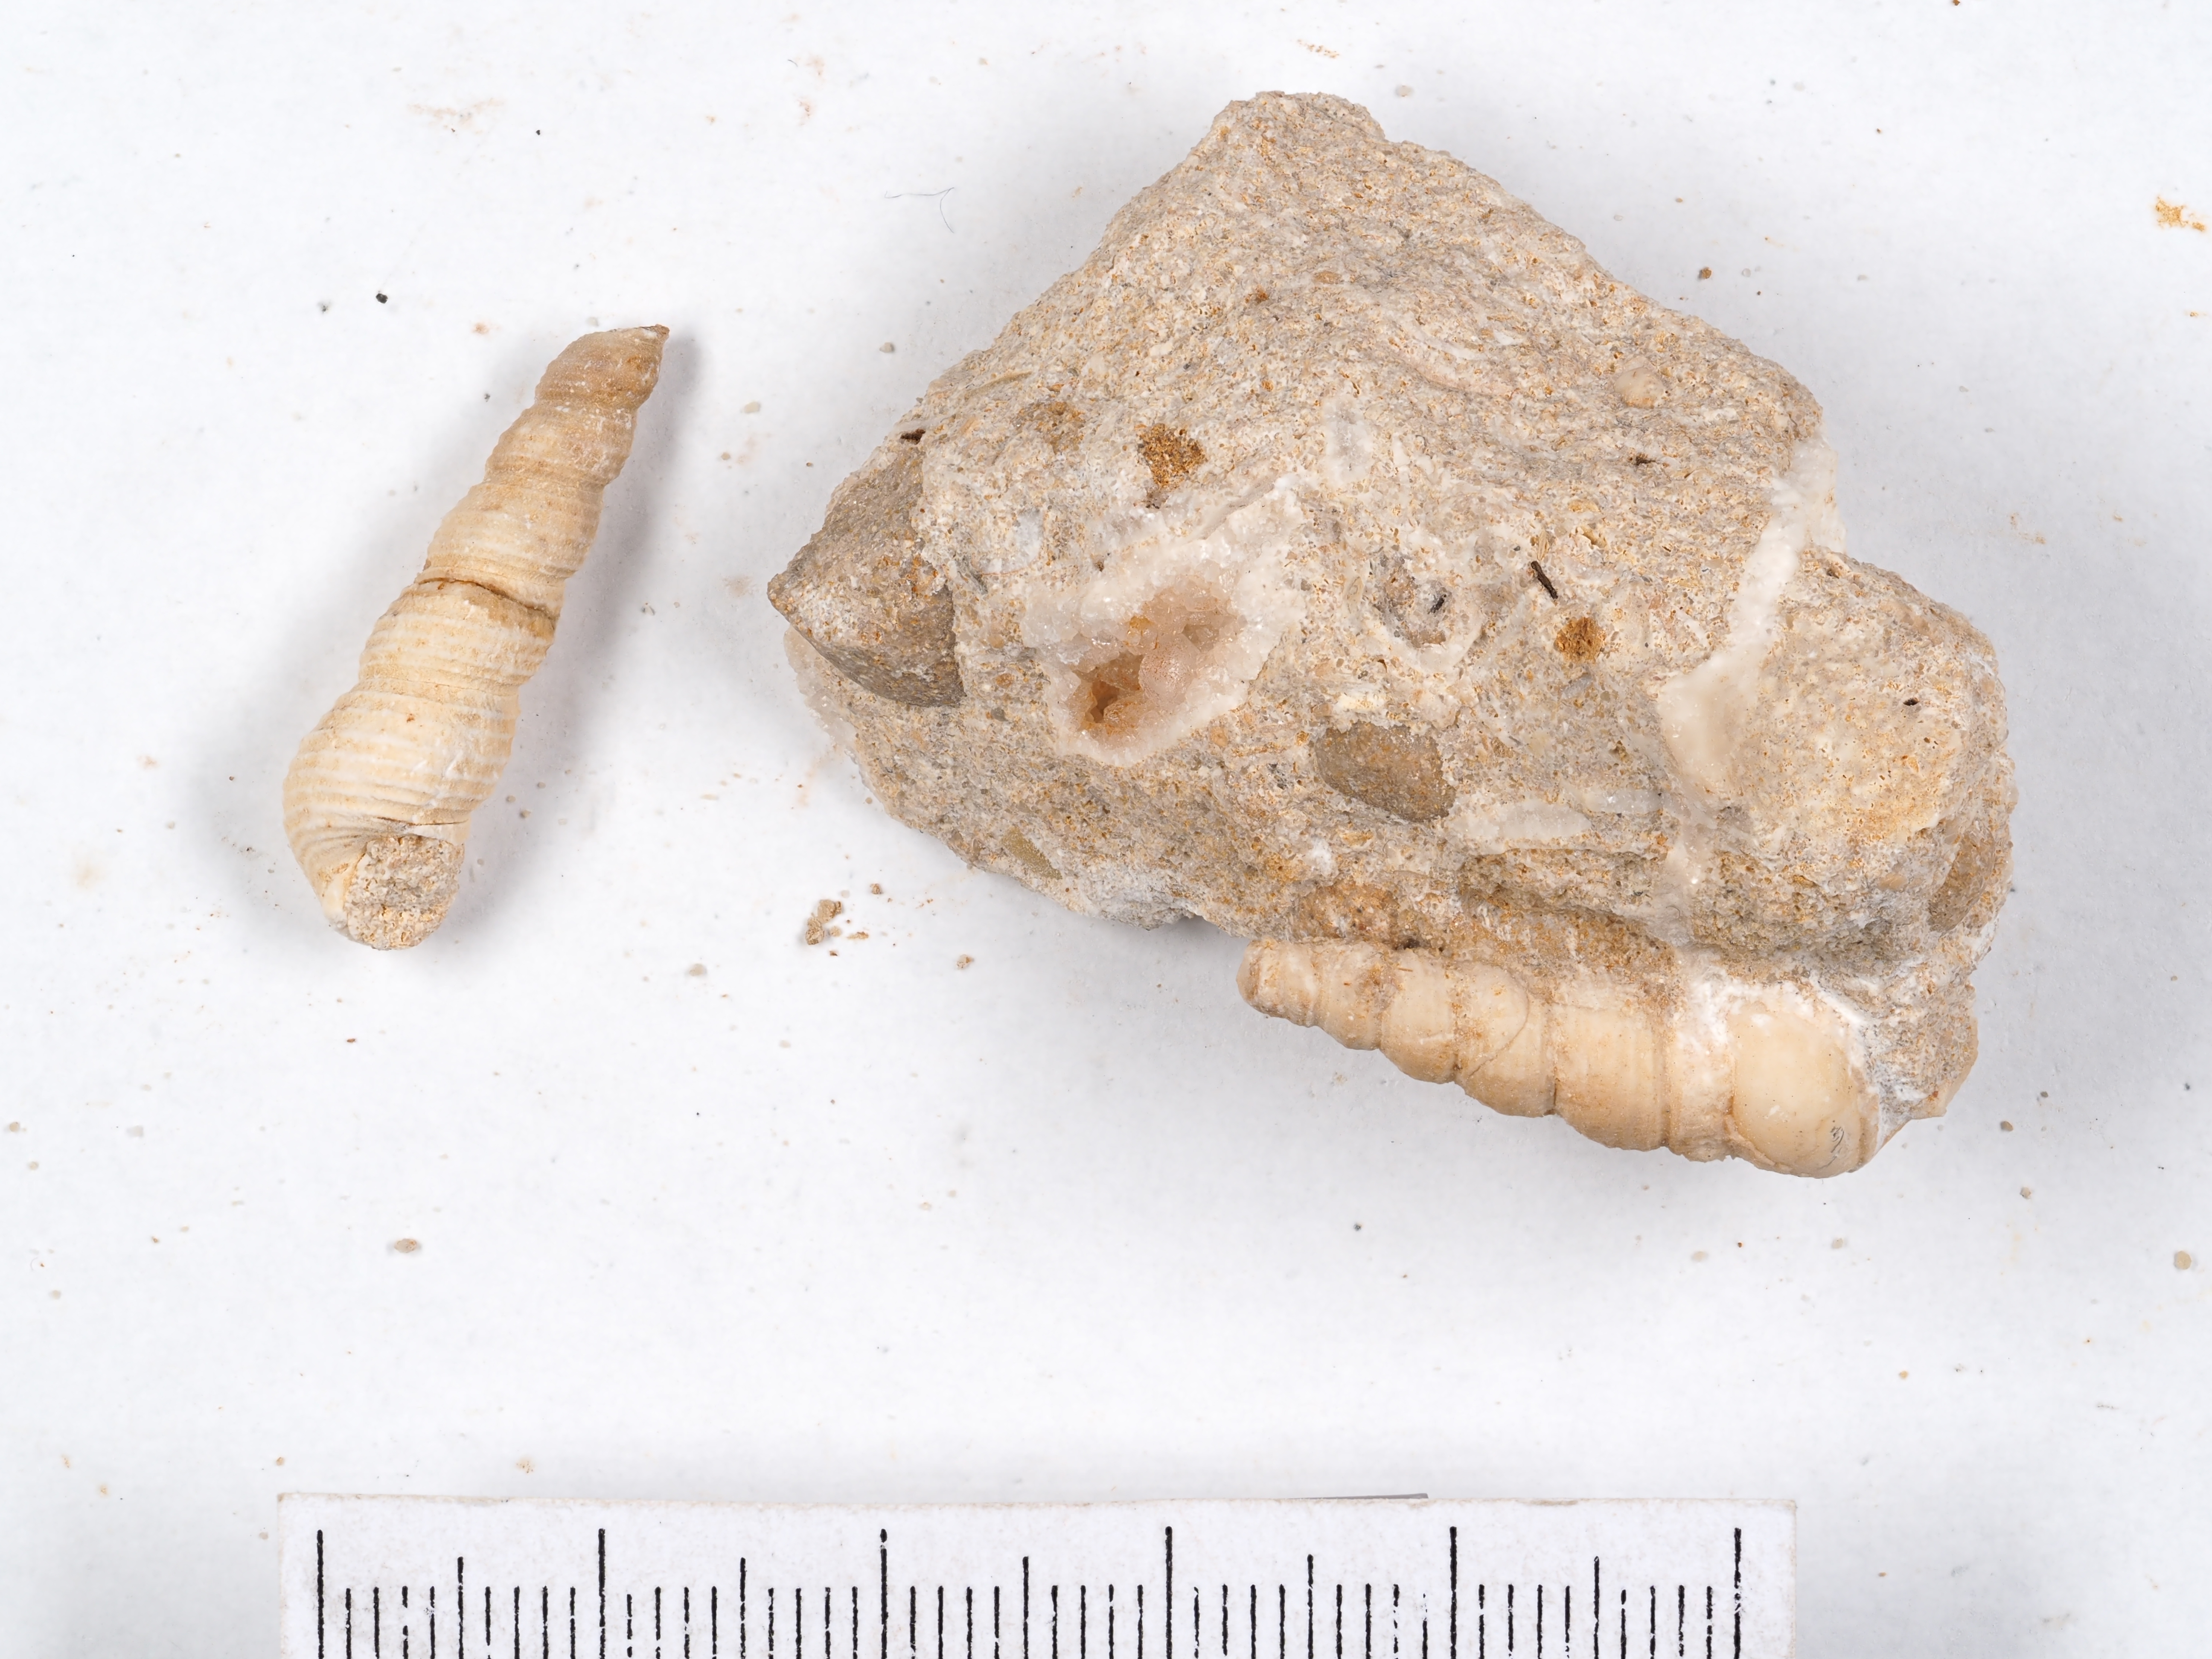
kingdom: Animalia
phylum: Mollusca
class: Gastropoda
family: Mathildidae
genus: Tangarilda
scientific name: Tangarilda subturritella
